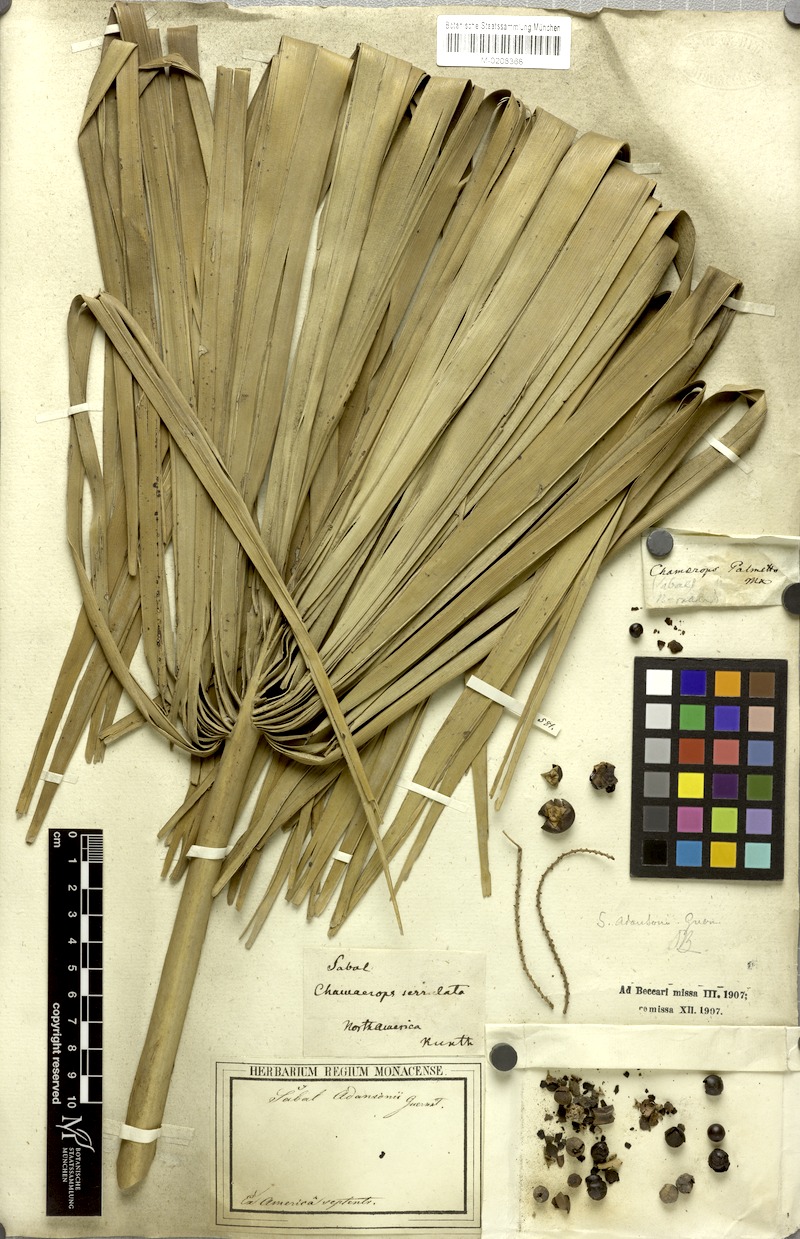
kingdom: Plantae
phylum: Tracheophyta
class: Liliopsida
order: Arecales
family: Arecaceae
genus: Sabal
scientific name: Sabal minor
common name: Dwarf palmetto
